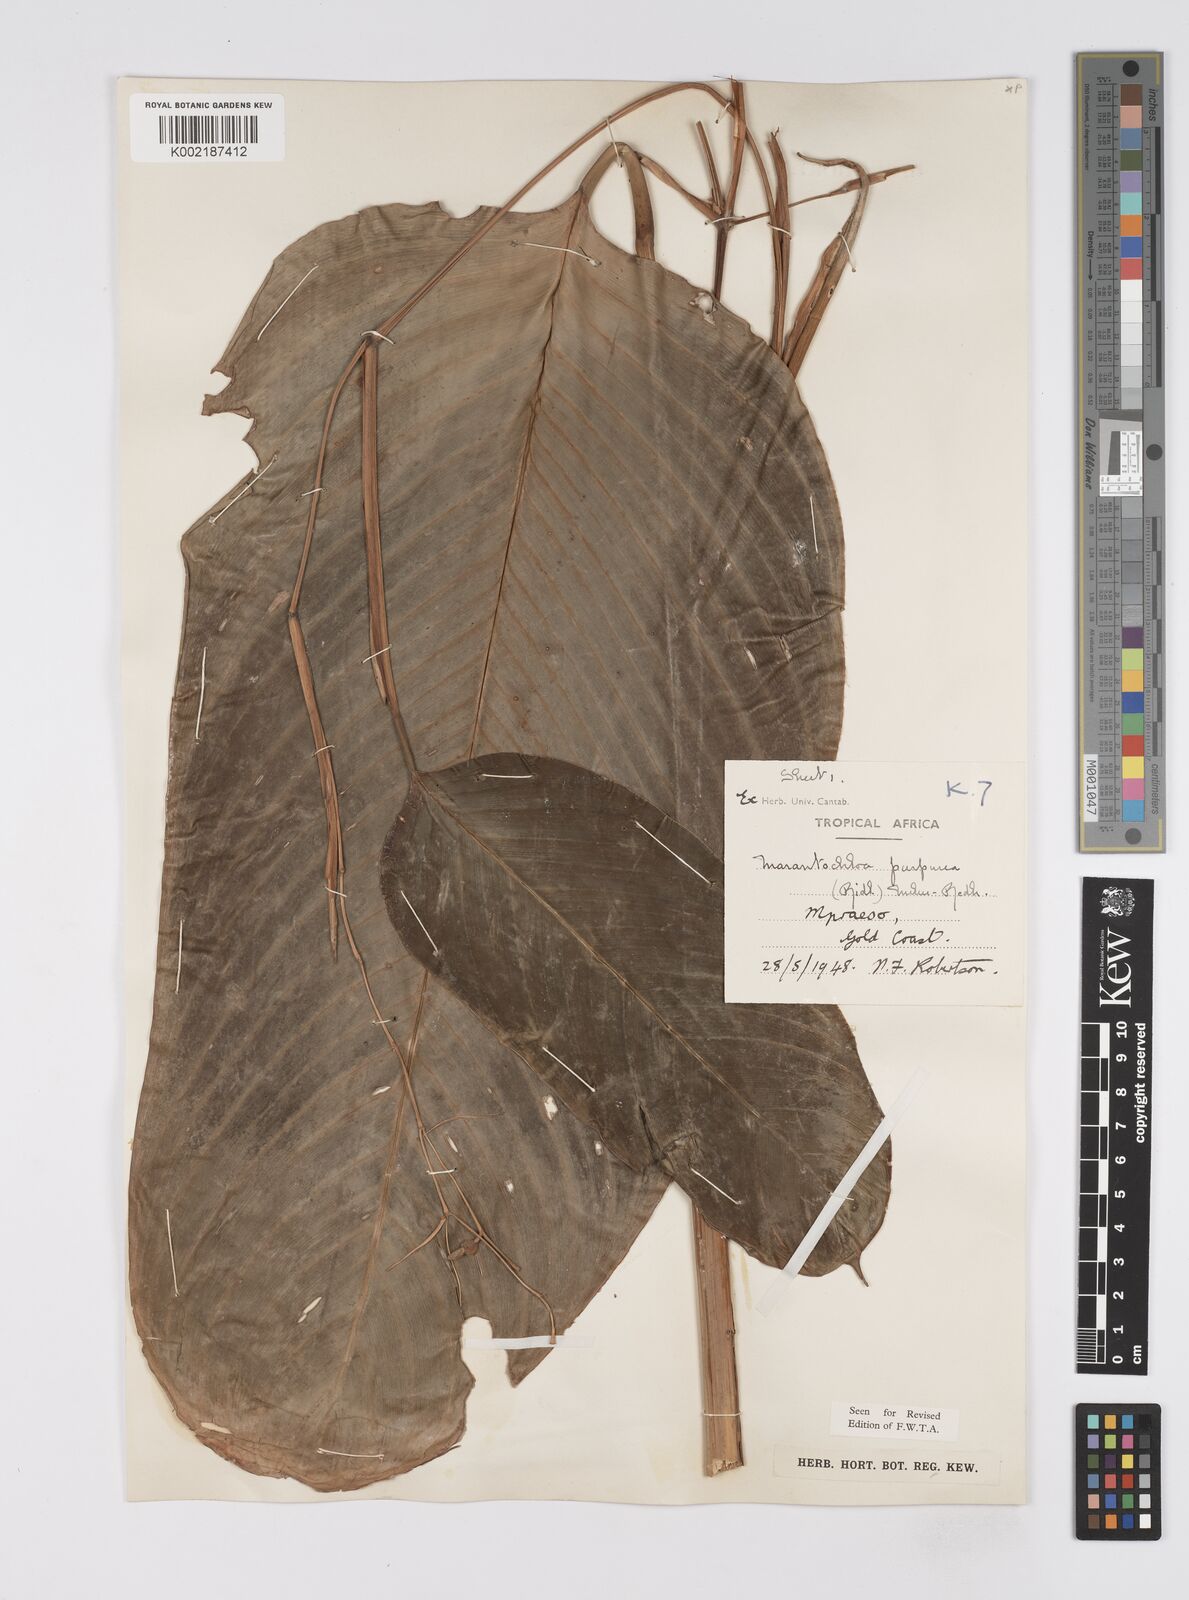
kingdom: Plantae
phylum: Tracheophyta
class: Liliopsida
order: Zingiberales
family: Marantaceae
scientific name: Marantaceae
